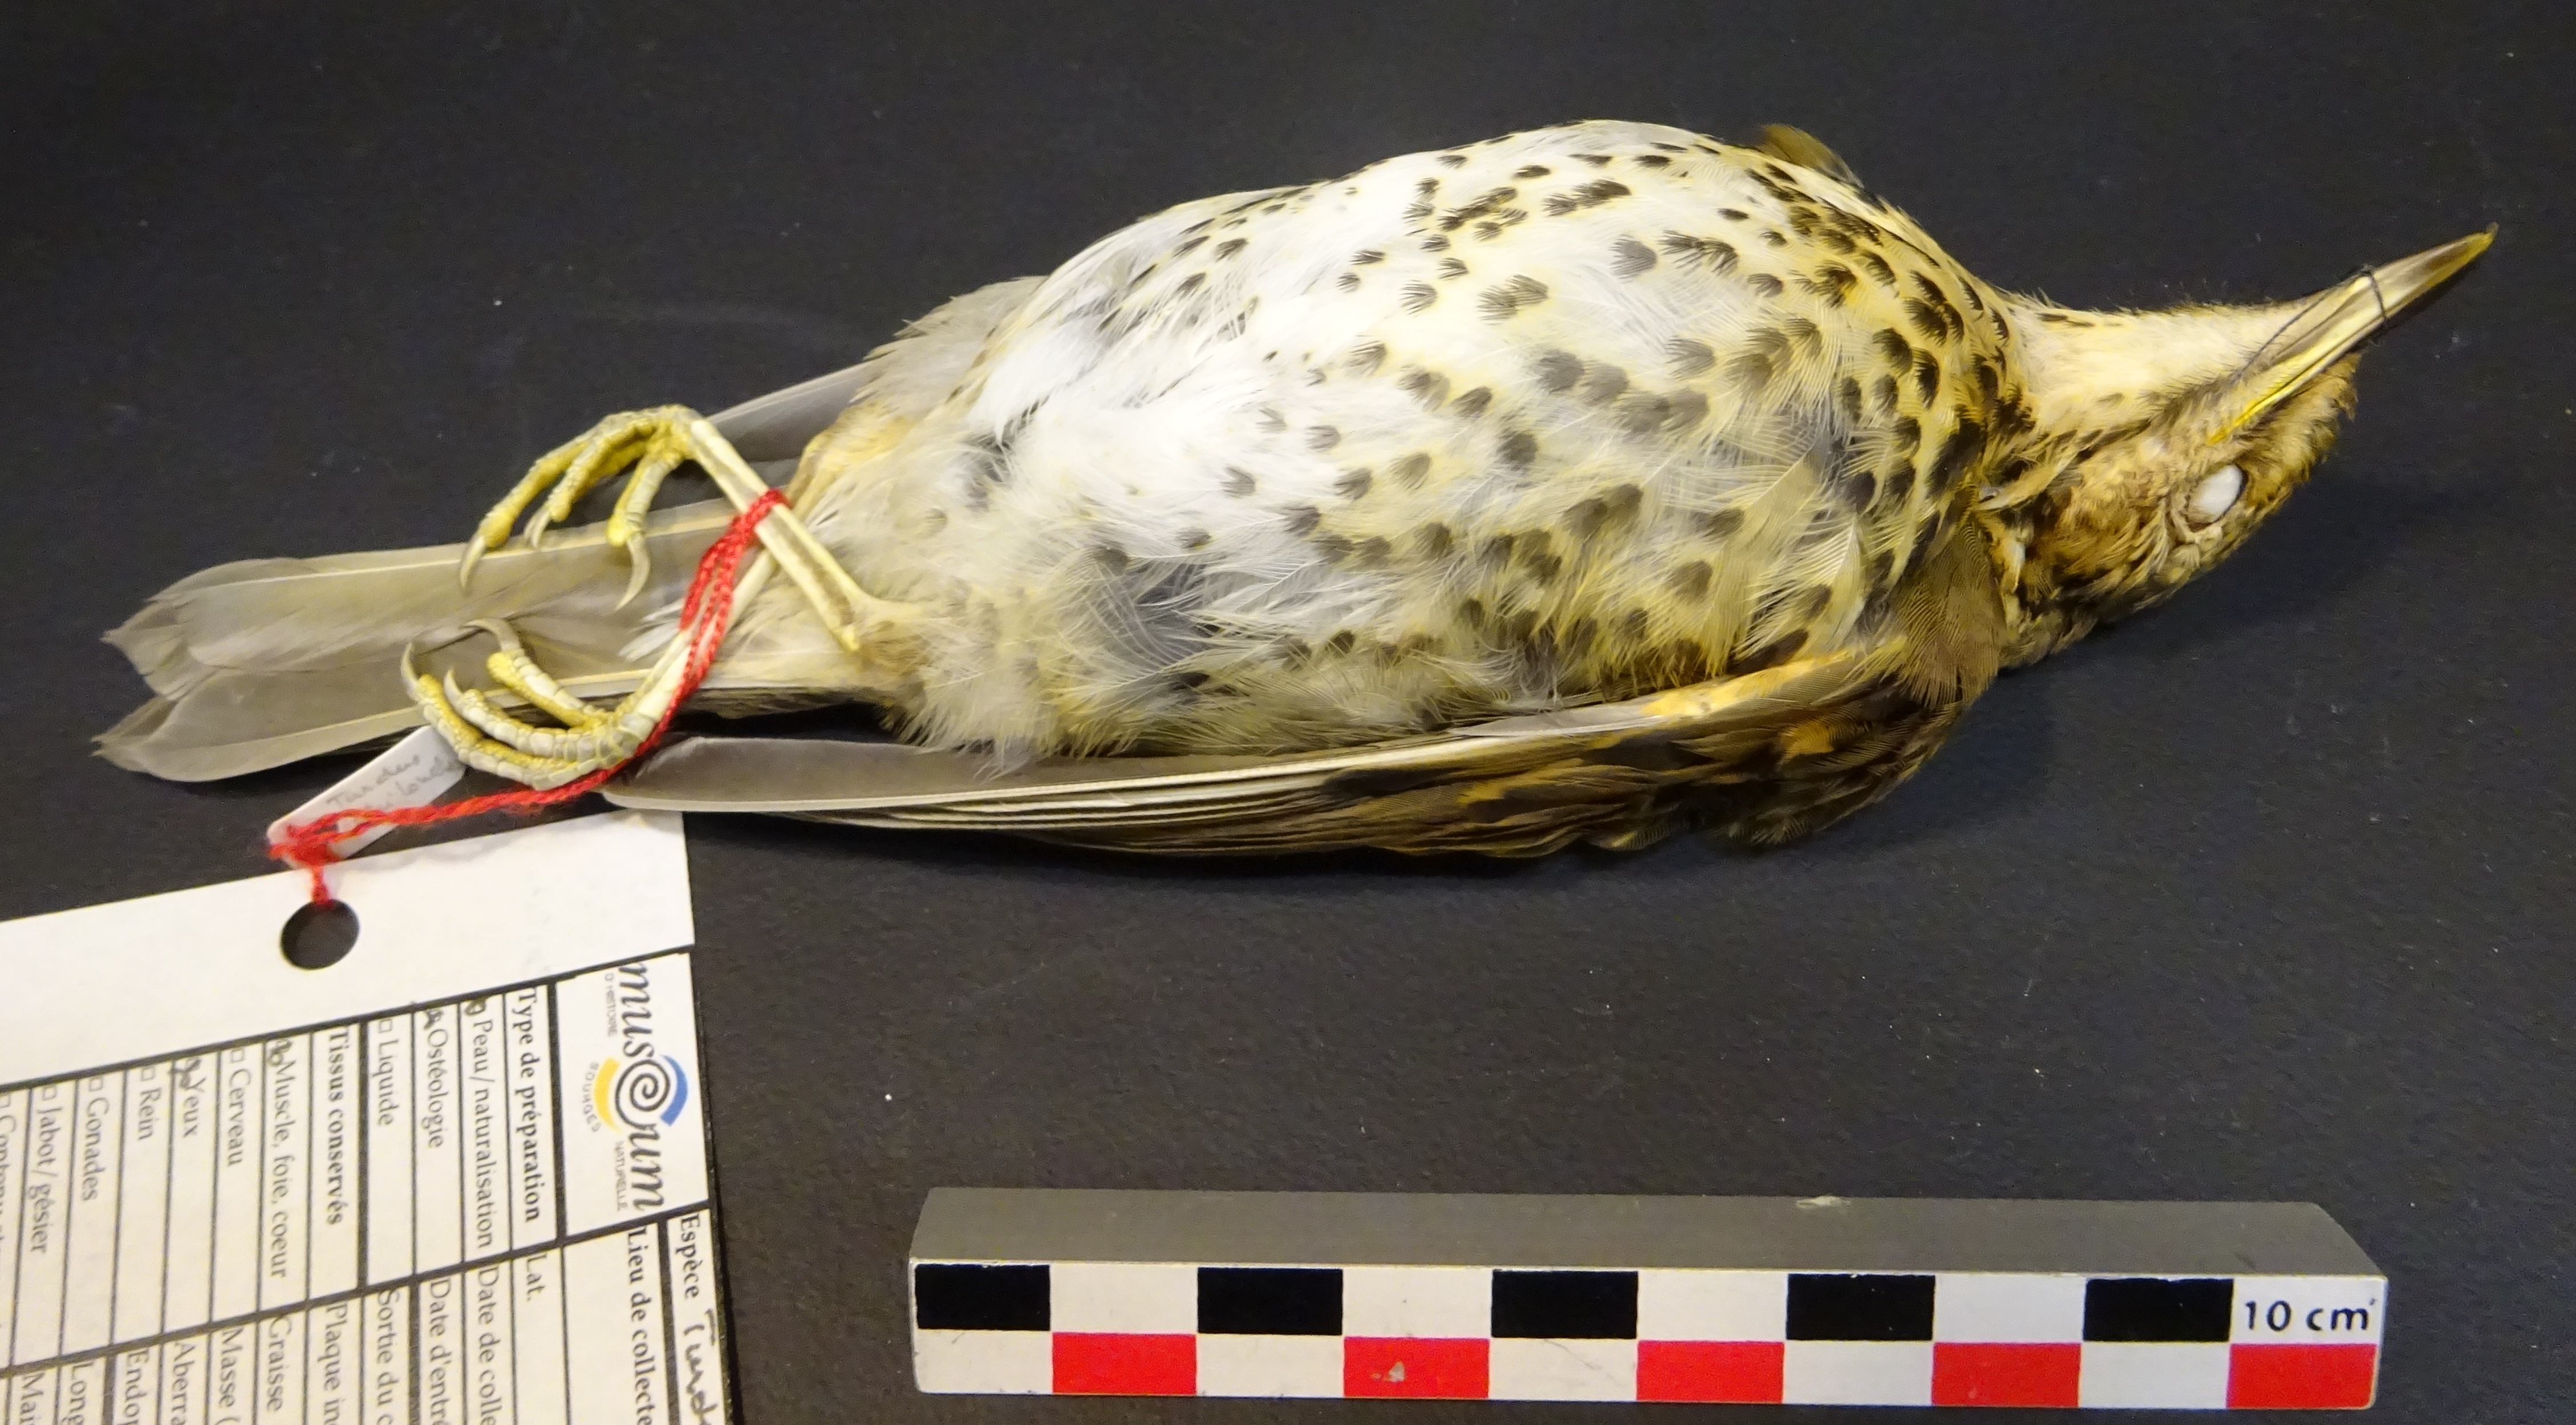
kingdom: Animalia
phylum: Chordata
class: Aves
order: Passeriformes
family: Turdidae
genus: Turdus
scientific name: Turdus philomelos
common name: Song thrush
